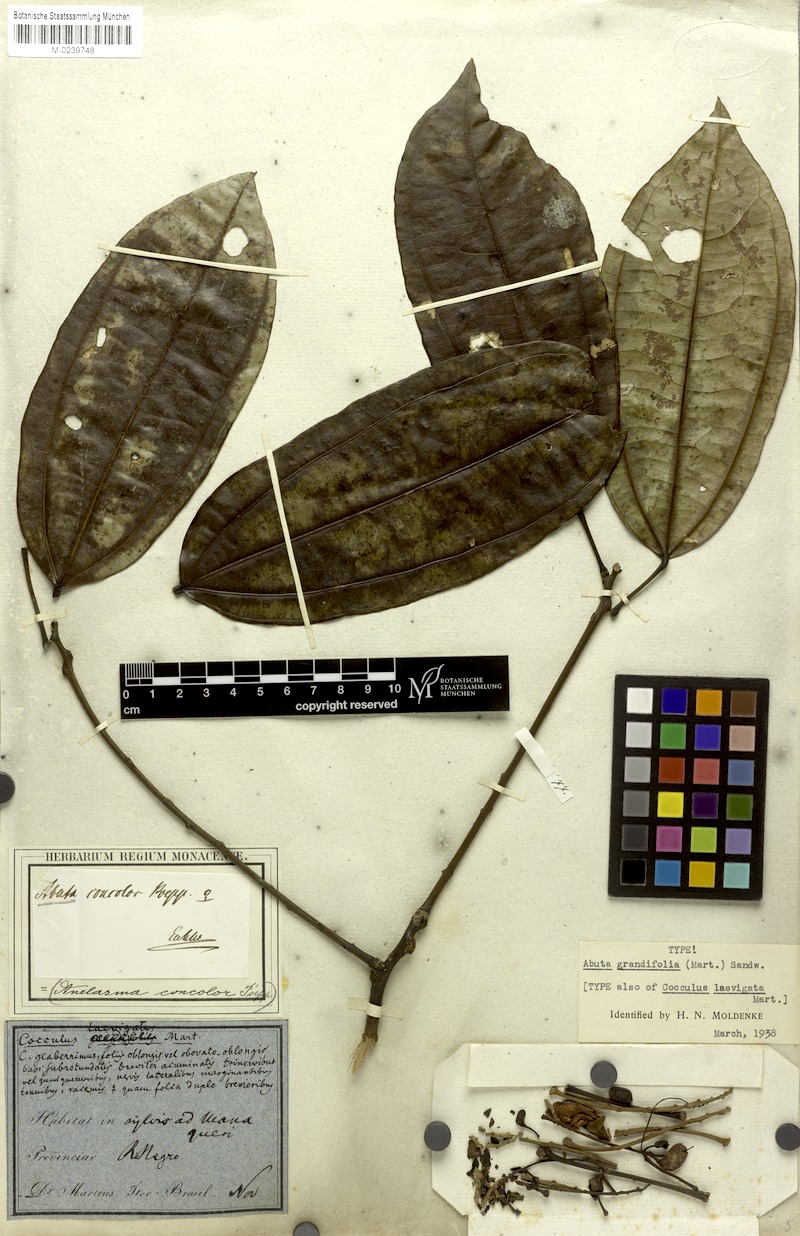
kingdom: Plantae
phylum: Tracheophyta
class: Magnoliopsida
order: Ranunculales
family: Menispermaceae
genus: Abuta
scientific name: Abuta grandifolia
